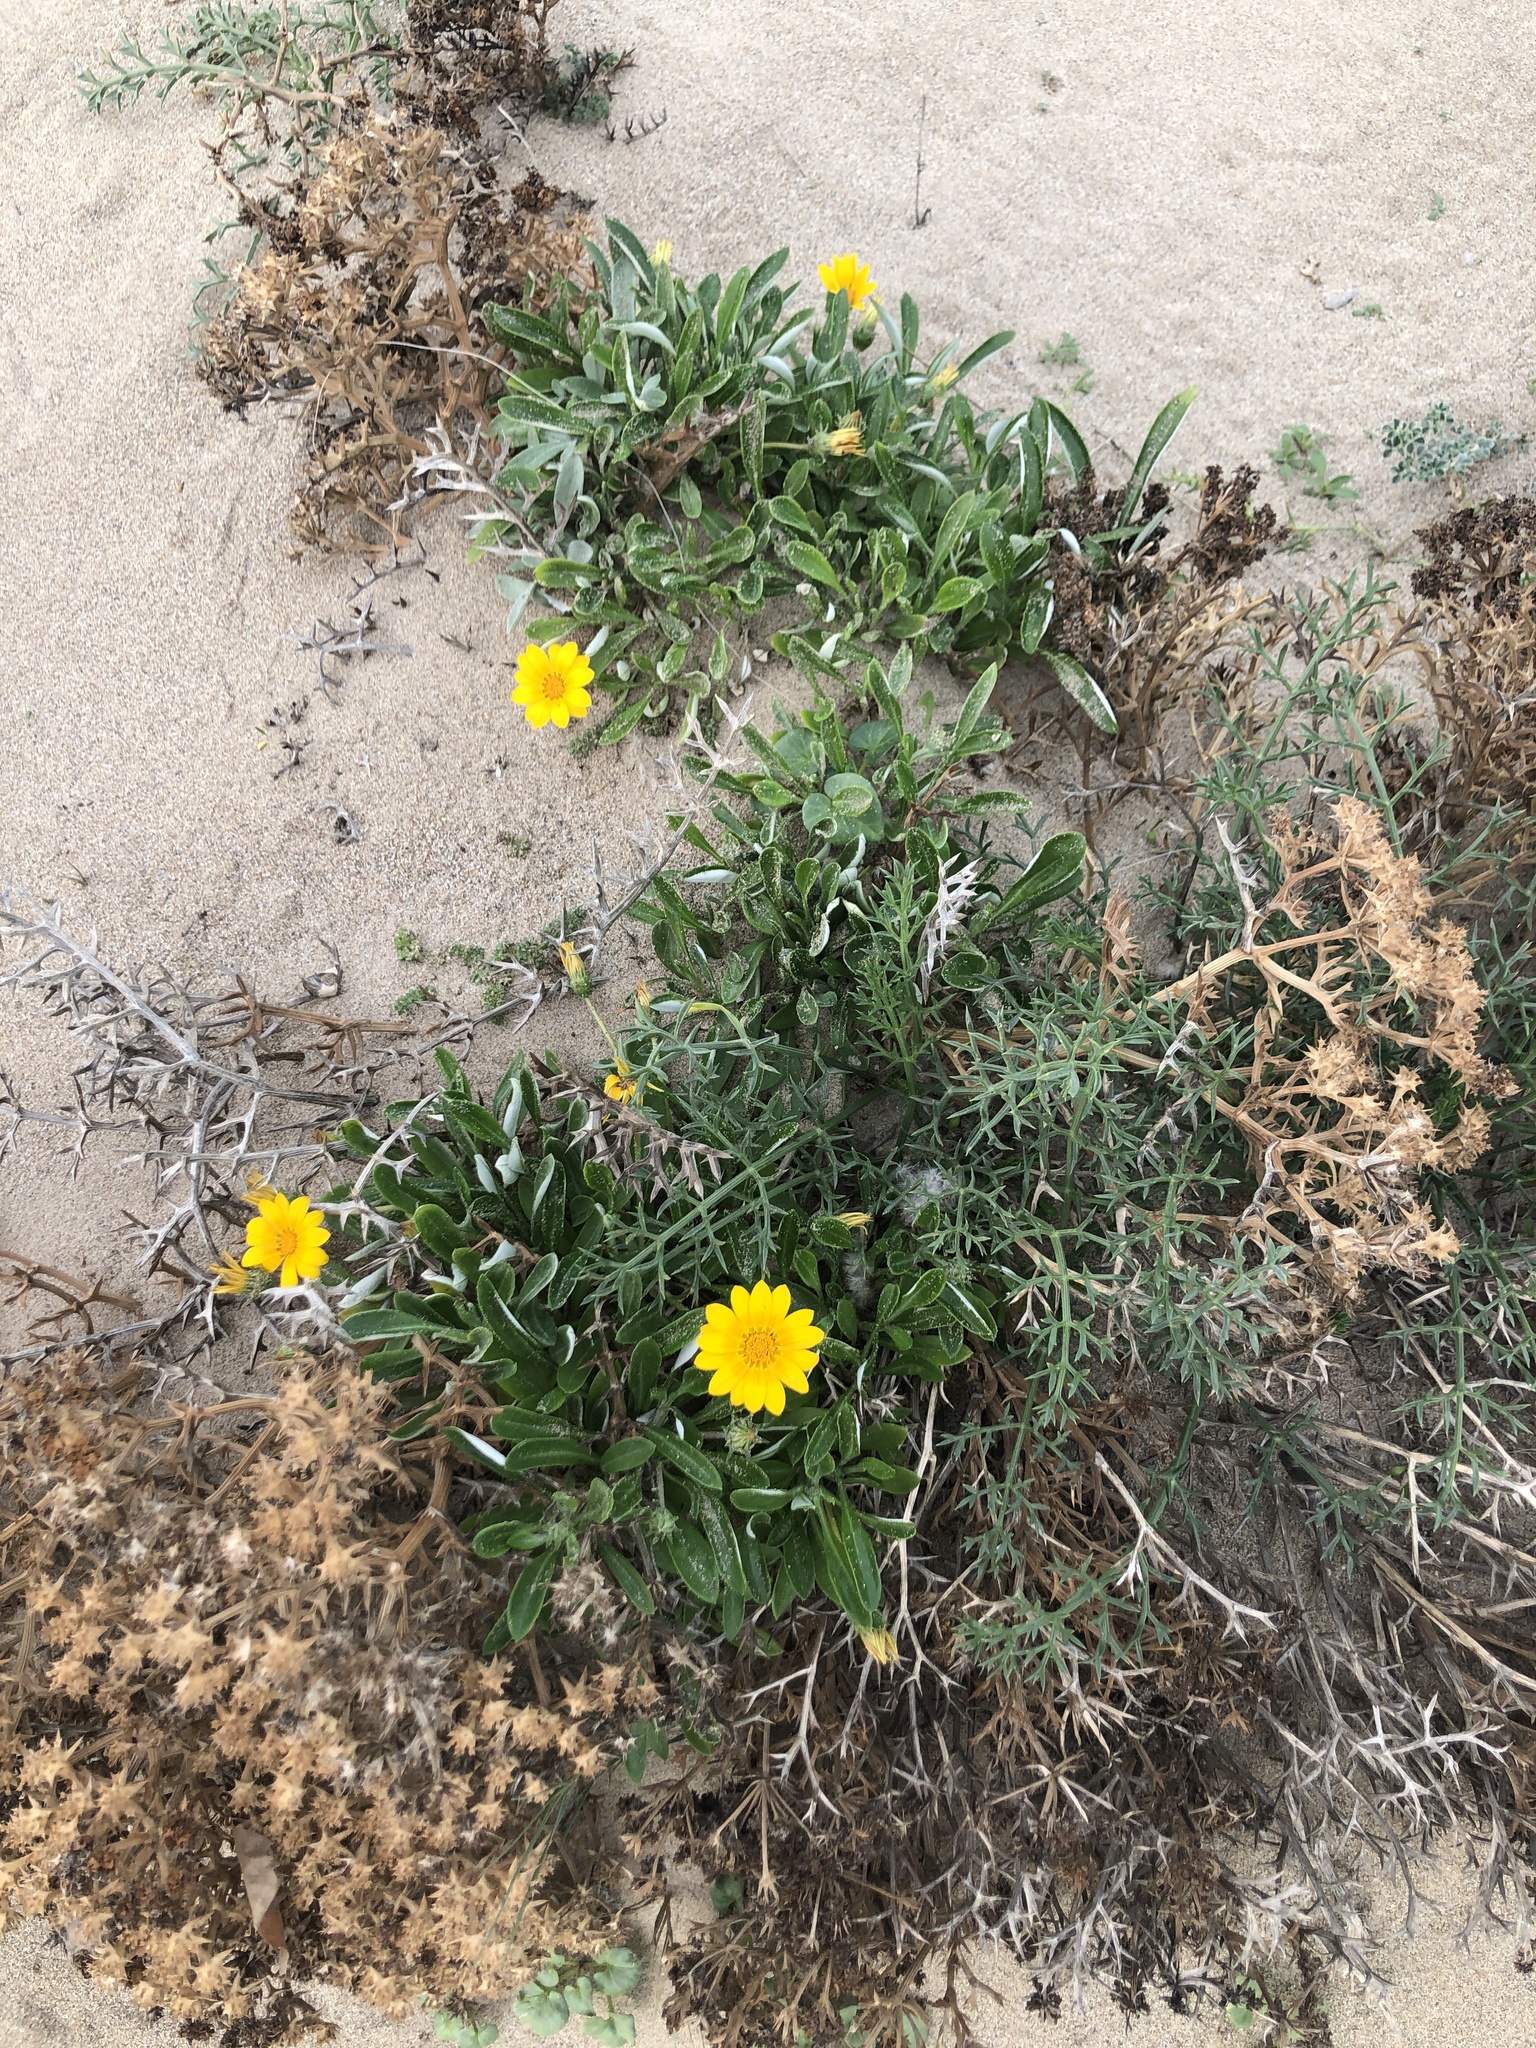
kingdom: Plantae
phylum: Tracheophyta
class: Magnoliopsida
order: Asterales
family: Asteraceae
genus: Gazania
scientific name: Gazania rigens
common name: Treasureflower
